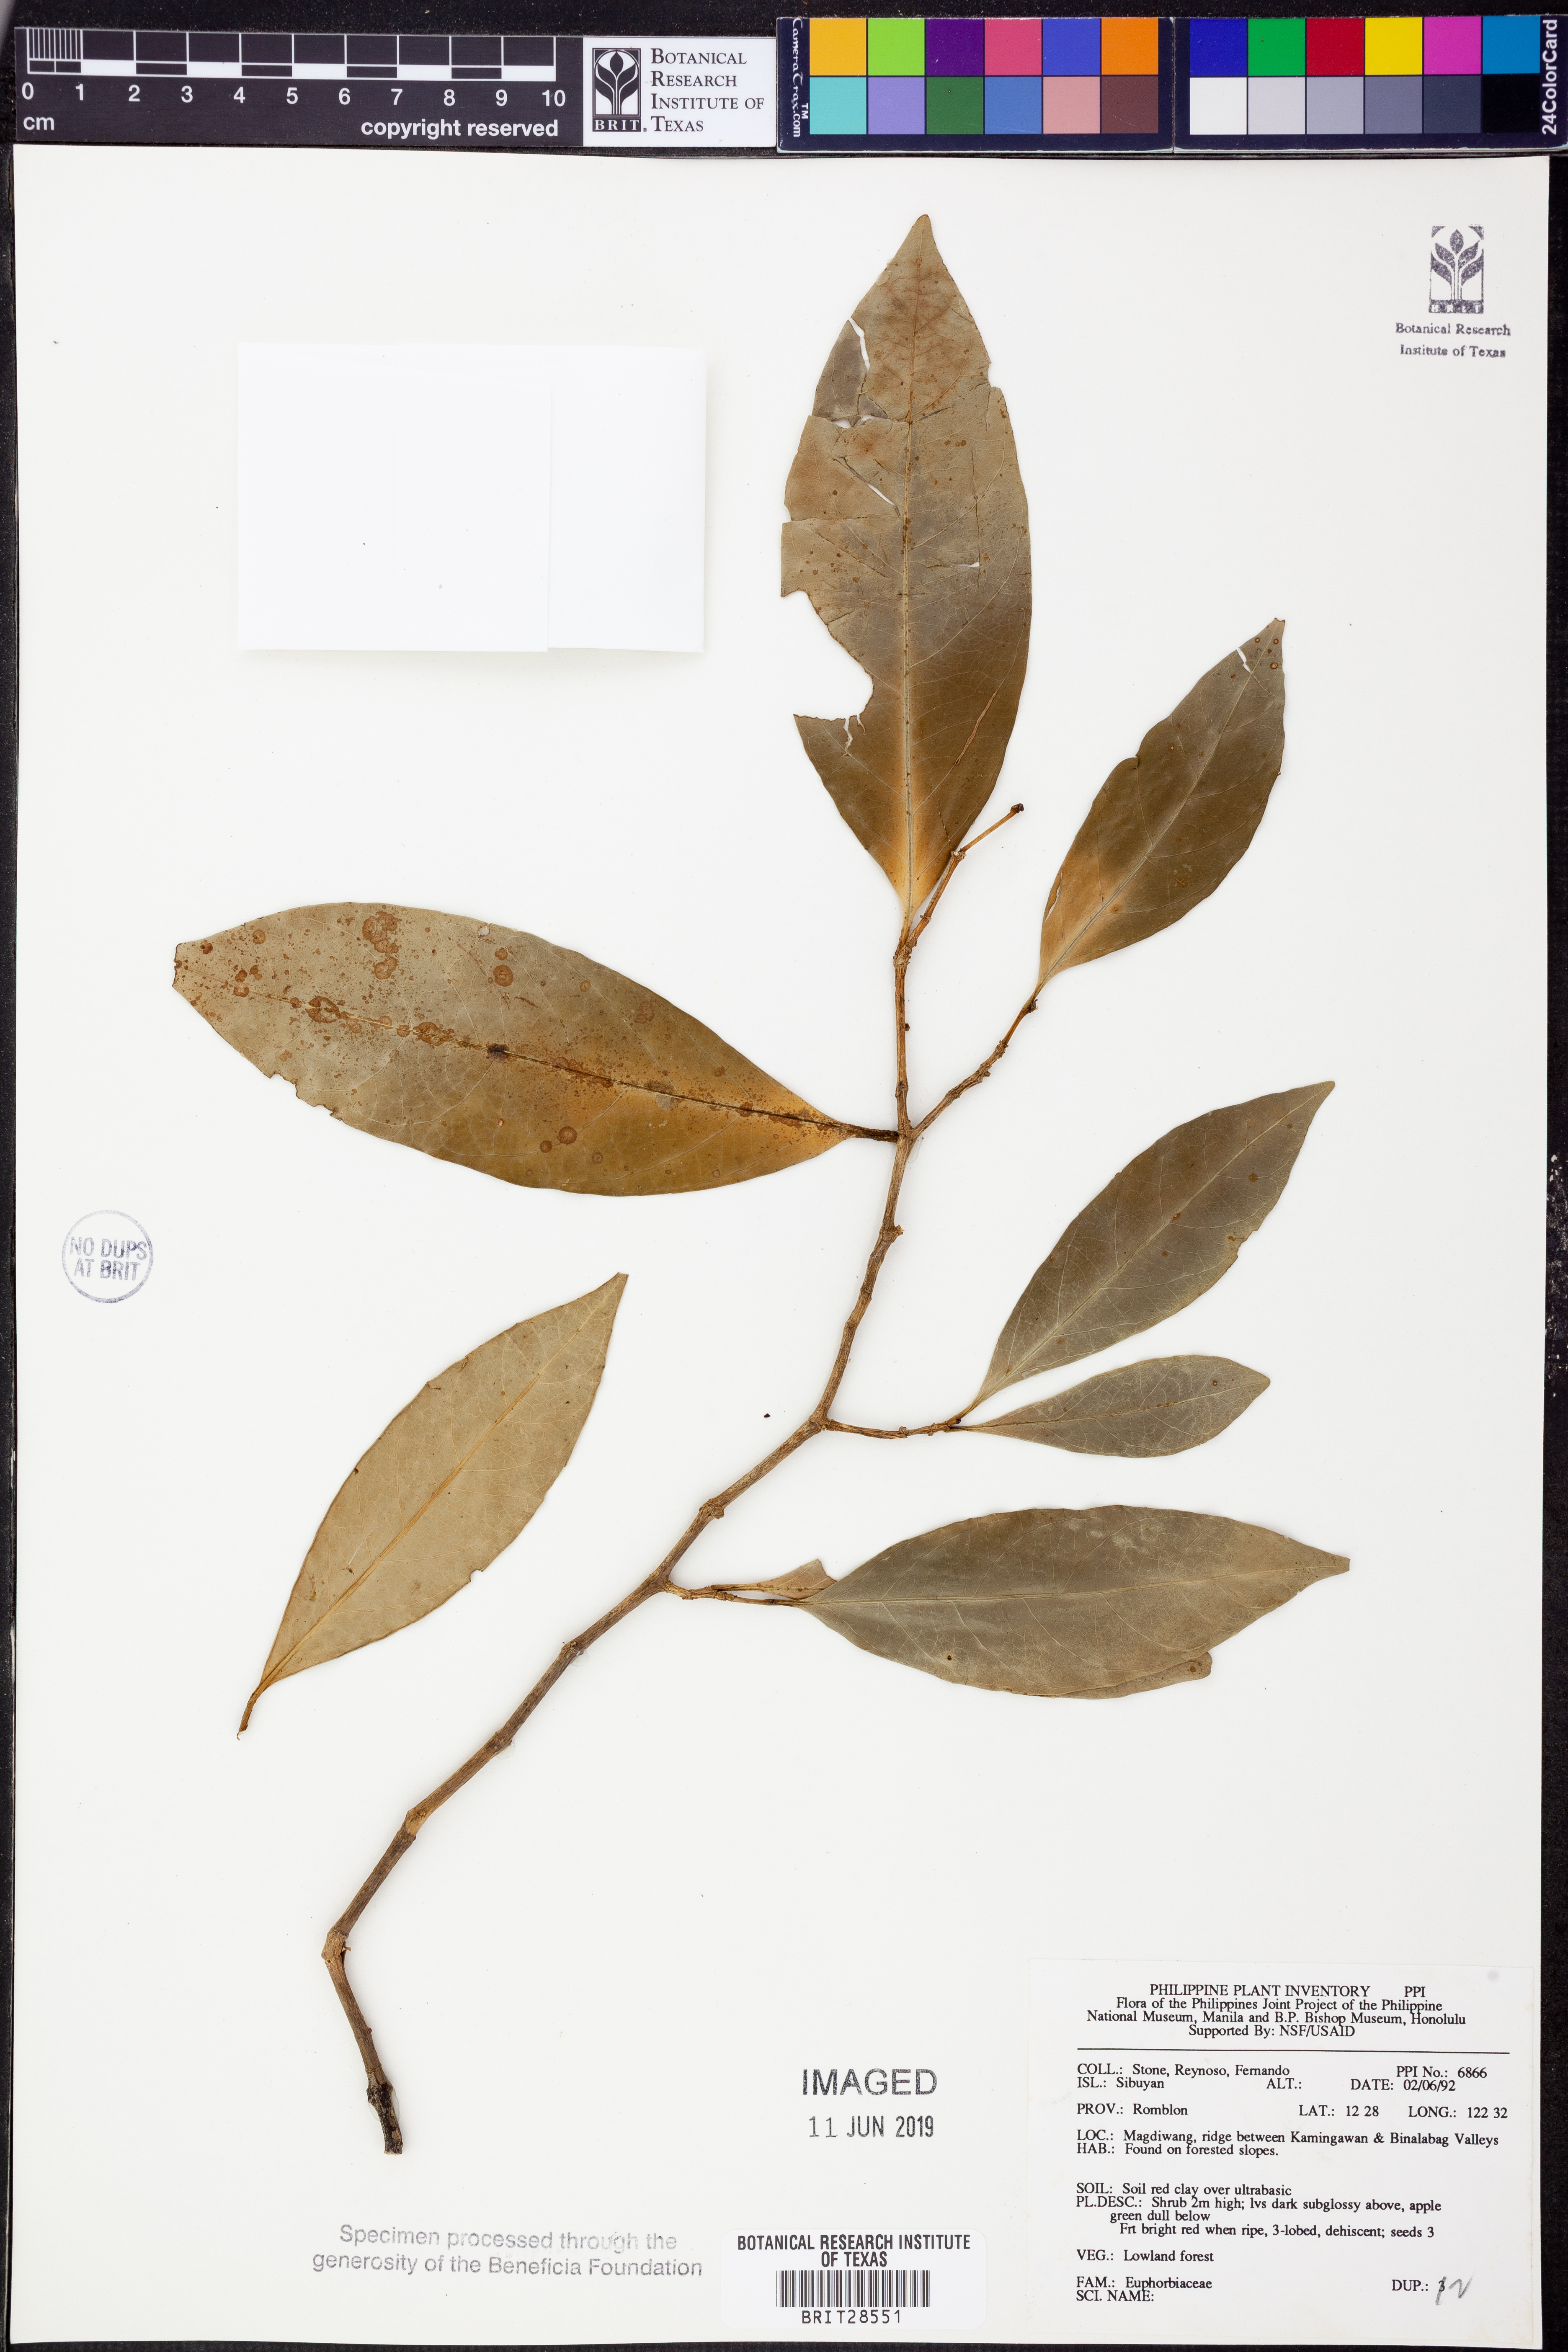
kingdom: Plantae
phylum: Tracheophyta
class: Magnoliopsida
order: Malpighiales
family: Euphorbiaceae
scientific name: Euphorbiaceae
